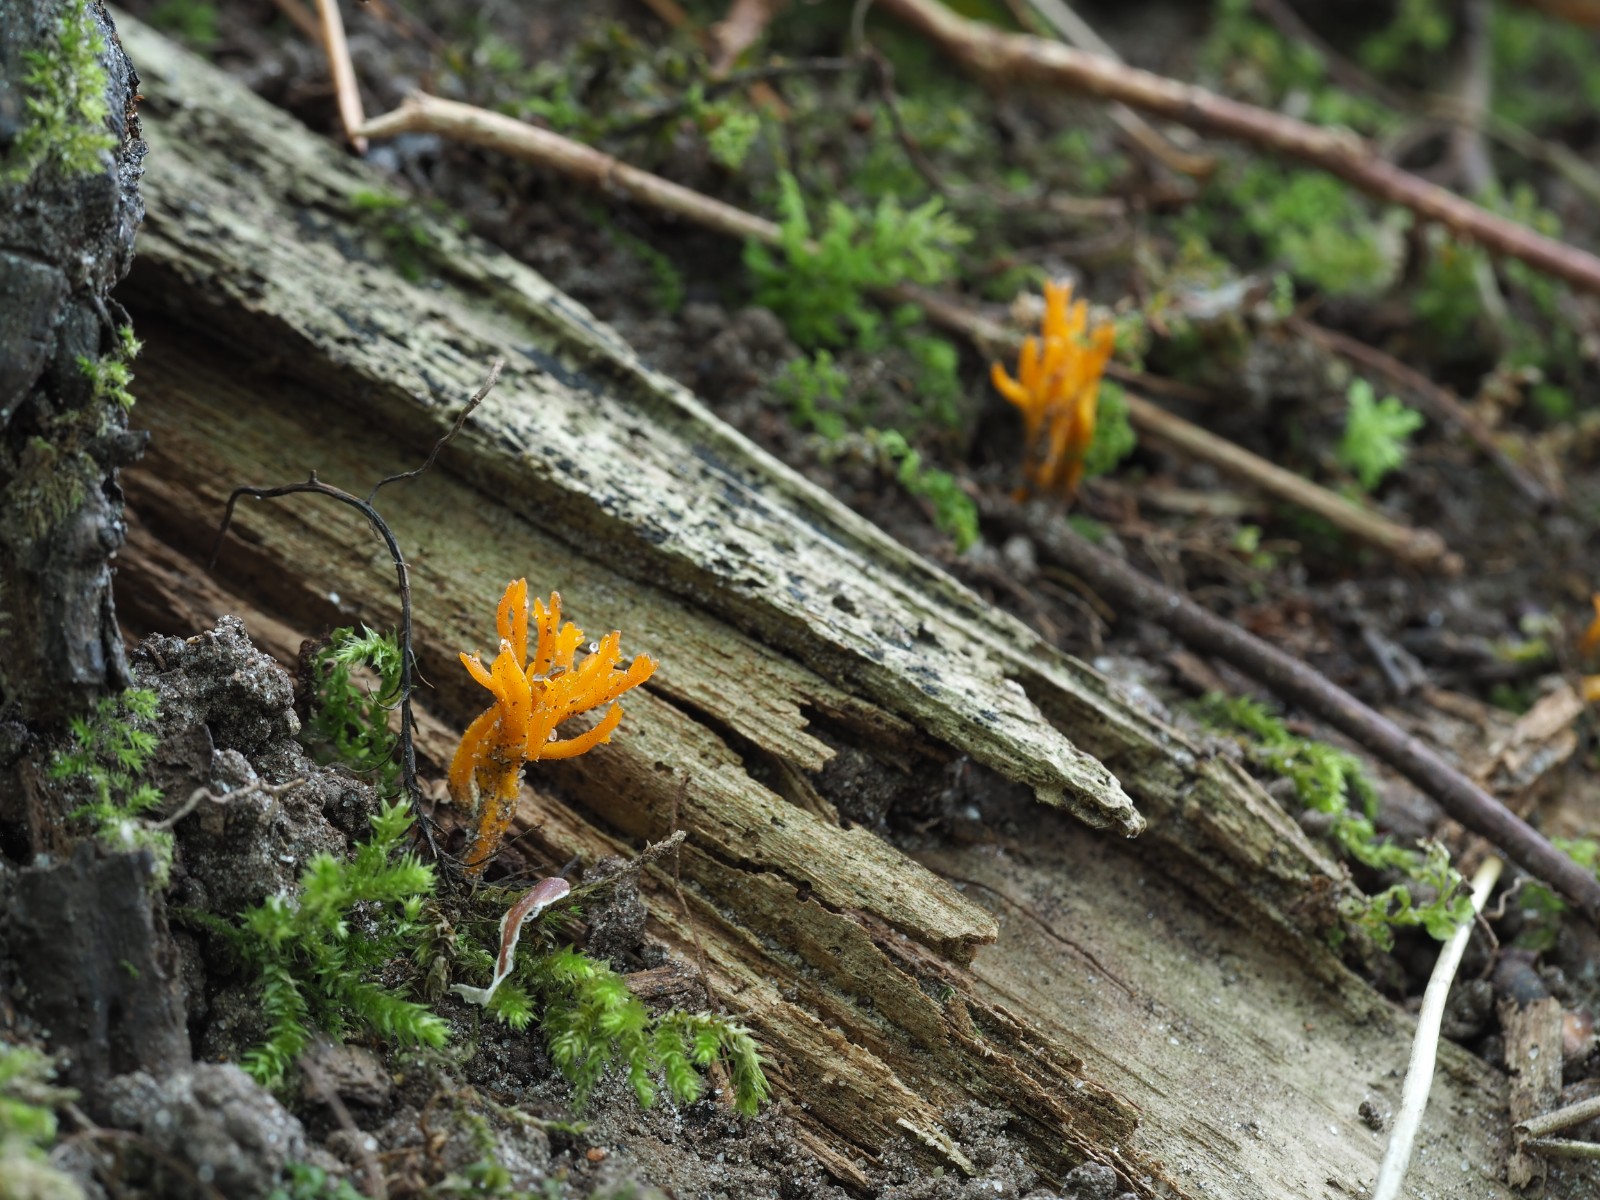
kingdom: Fungi
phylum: Basidiomycota
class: Dacrymycetes
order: Dacrymycetales
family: Dacrymycetaceae
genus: Calocera
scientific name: Calocera viscosa
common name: almindelig guldgaffel
